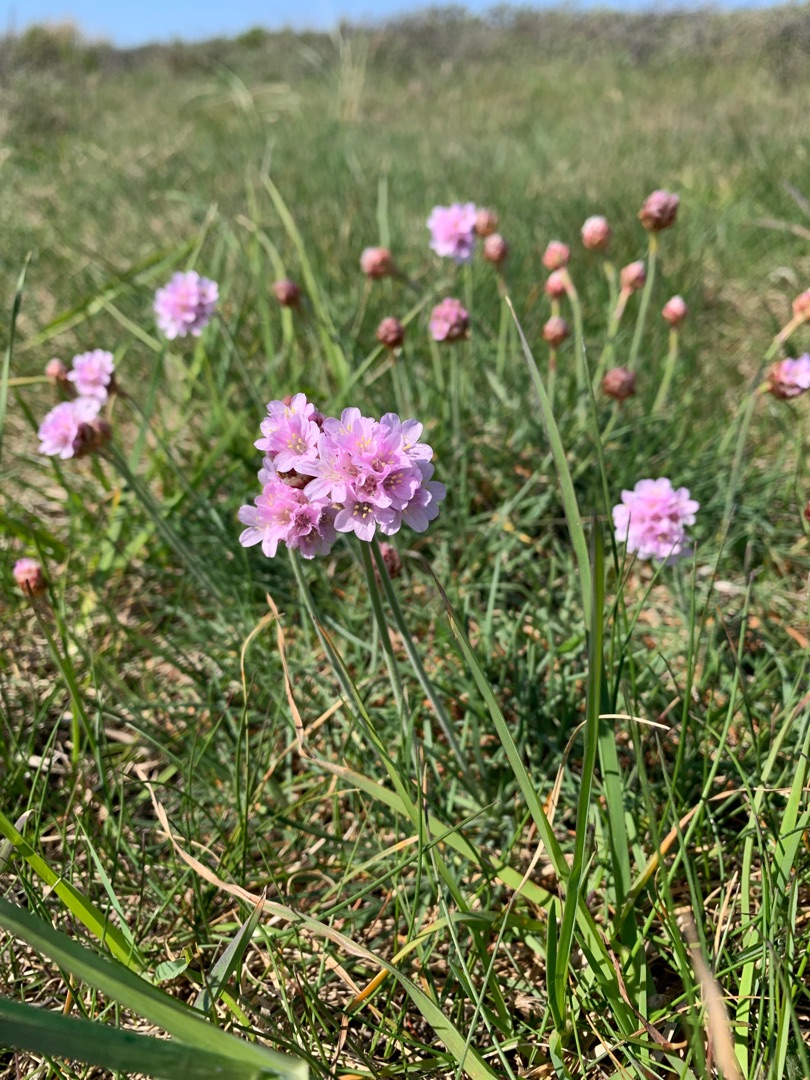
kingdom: Plantae
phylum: Tracheophyta
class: Magnoliopsida
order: Caryophyllales
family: Plumbaginaceae
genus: Armeria
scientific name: Armeria maritima
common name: Engelskgræs
